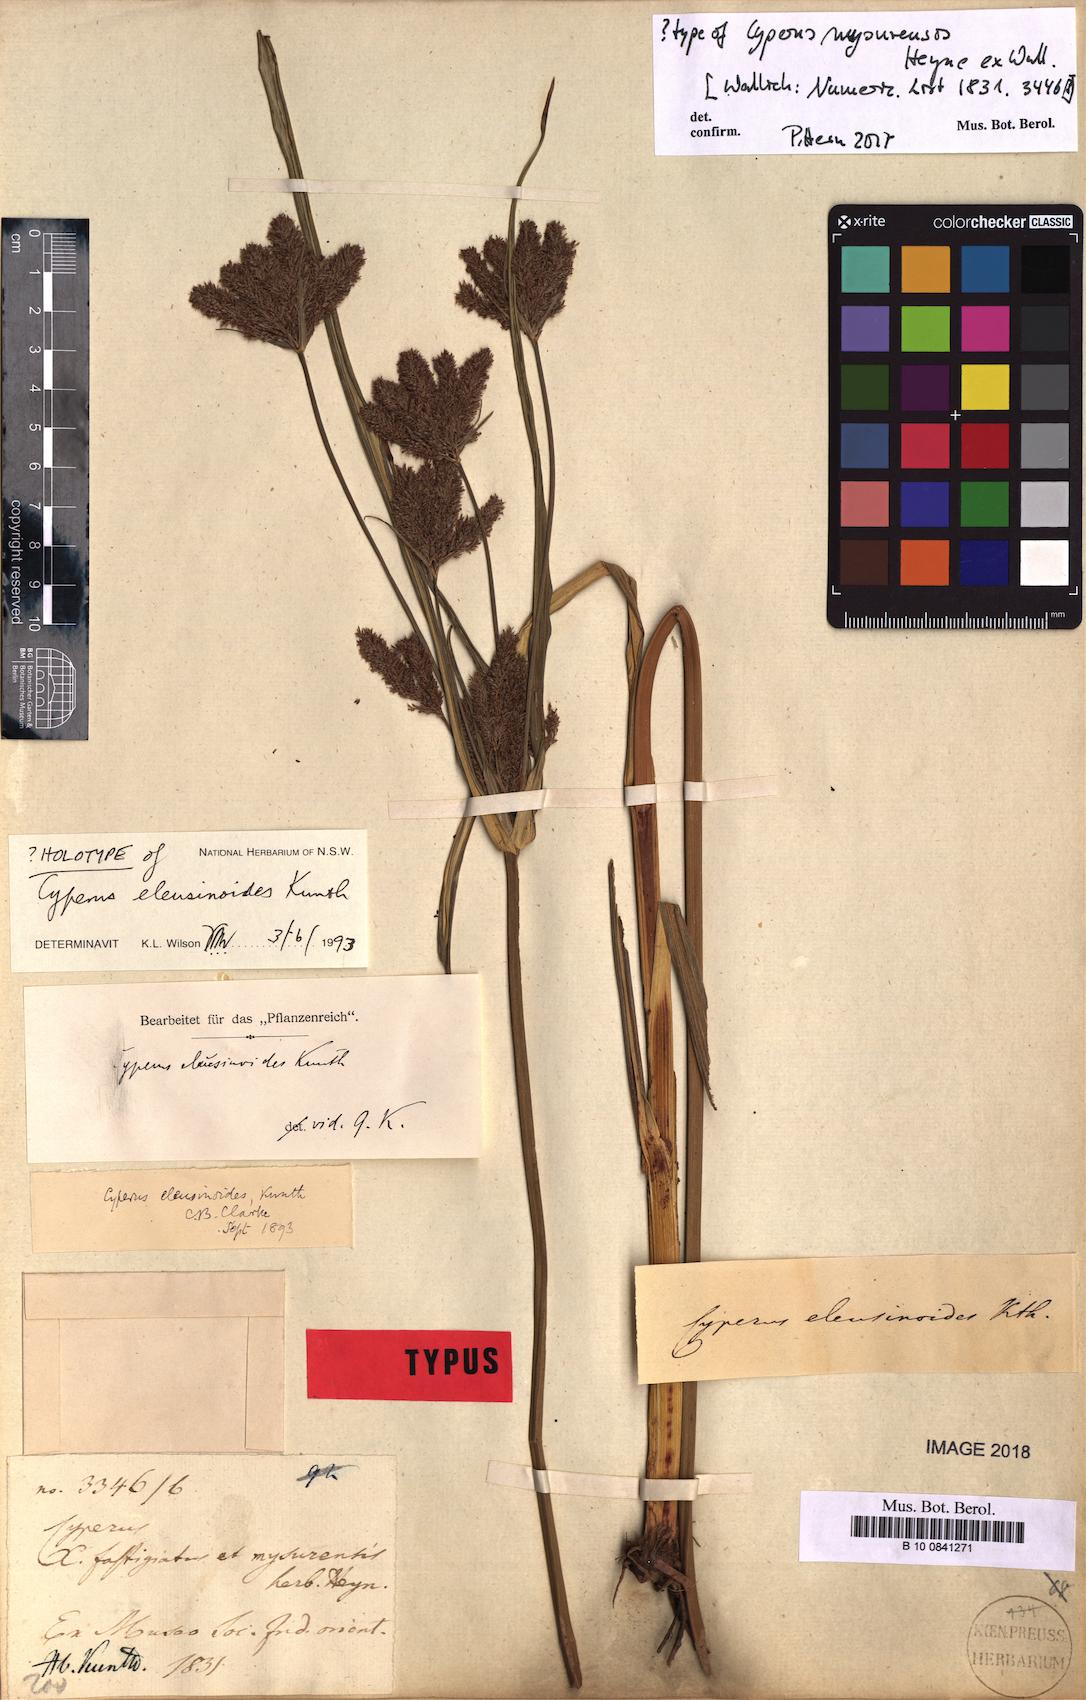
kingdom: Plantae
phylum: Tracheophyta
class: Liliopsida
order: Poales
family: Cyperaceae
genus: Cyperus
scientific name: Cyperus nutans
